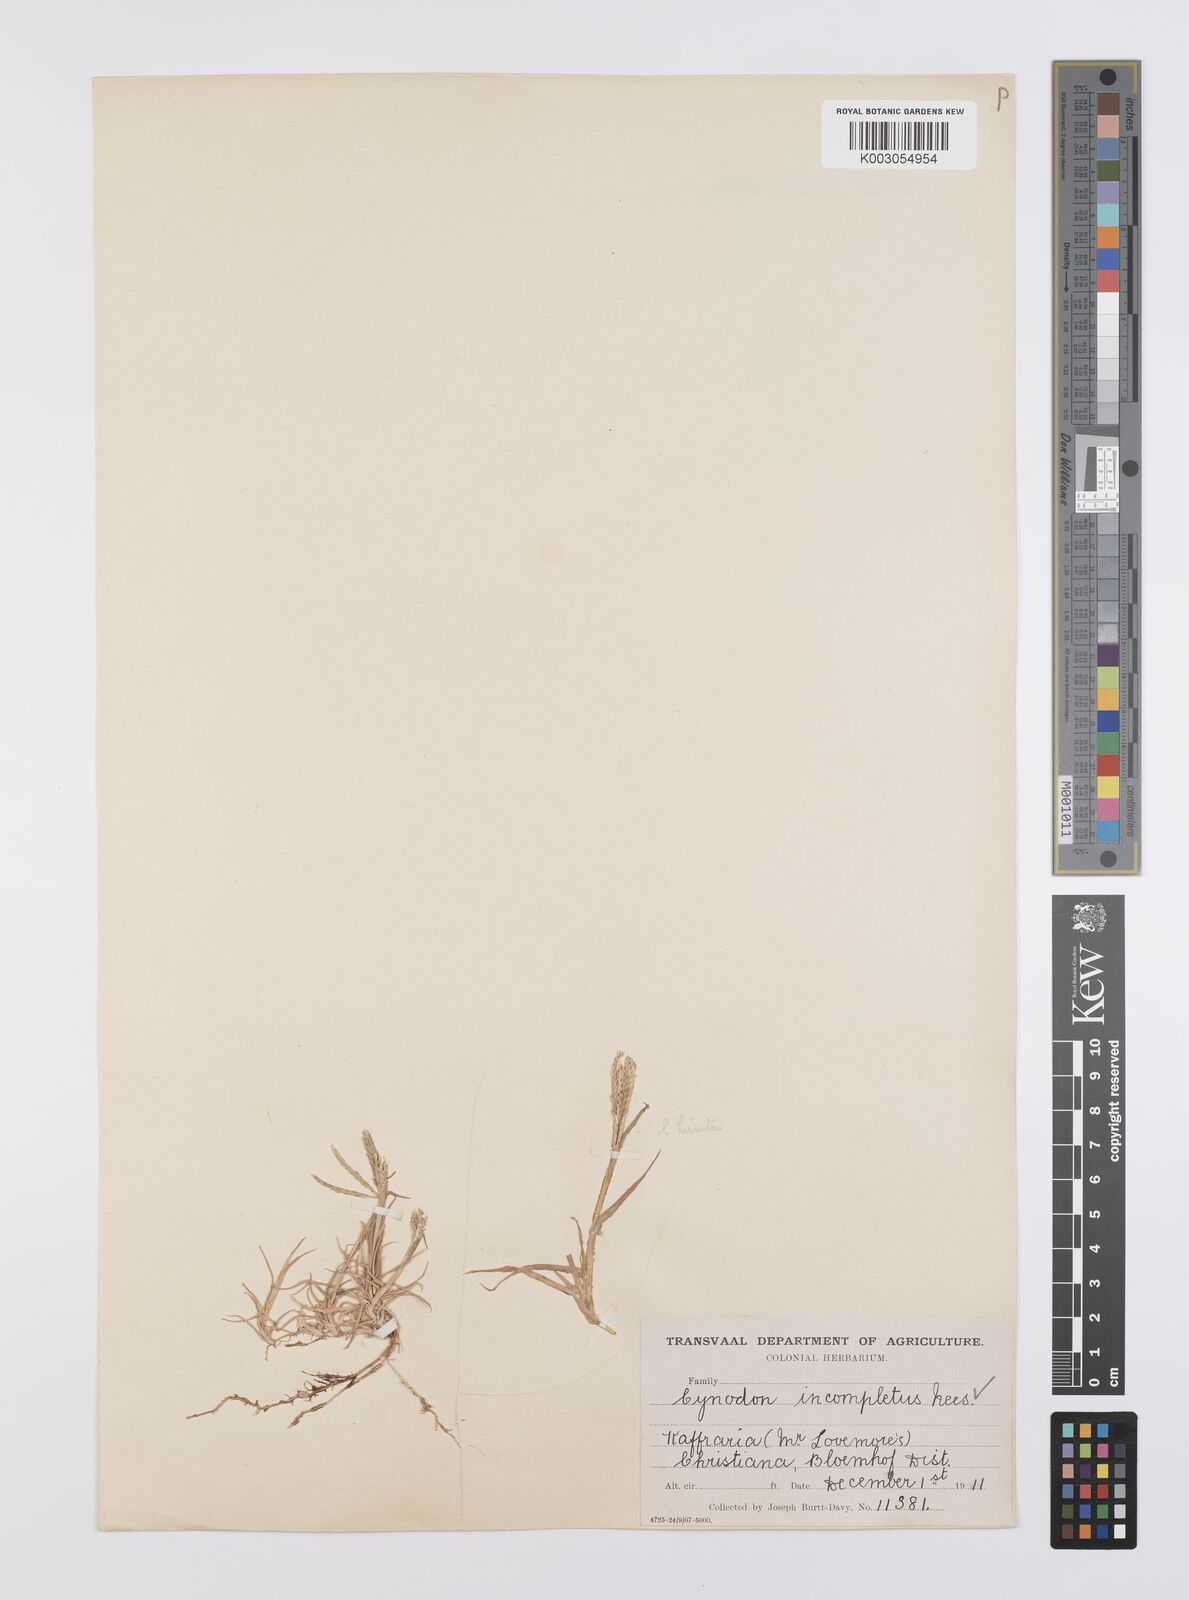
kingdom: Plantae
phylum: Tracheophyta
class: Liliopsida
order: Poales
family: Poaceae
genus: Cynodon
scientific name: Cynodon incompletus
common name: African bermuda-grass
